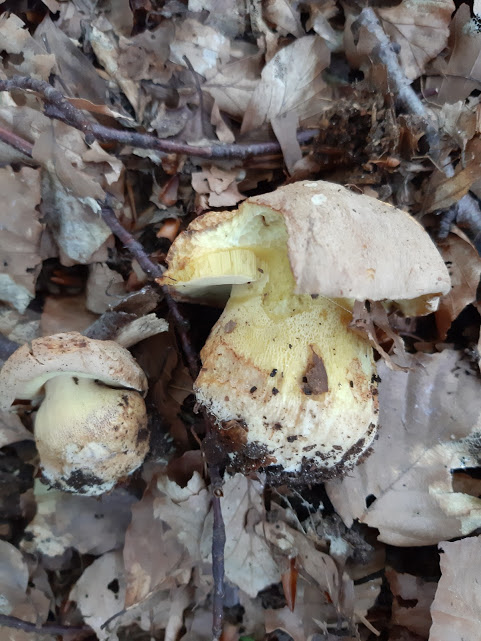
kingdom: Fungi
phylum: Basidiomycota
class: Agaricomycetes
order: Boletales
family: Boletaceae
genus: Butyriboletus
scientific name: Butyriboletus appendiculatus
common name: tenstokket rørhat
